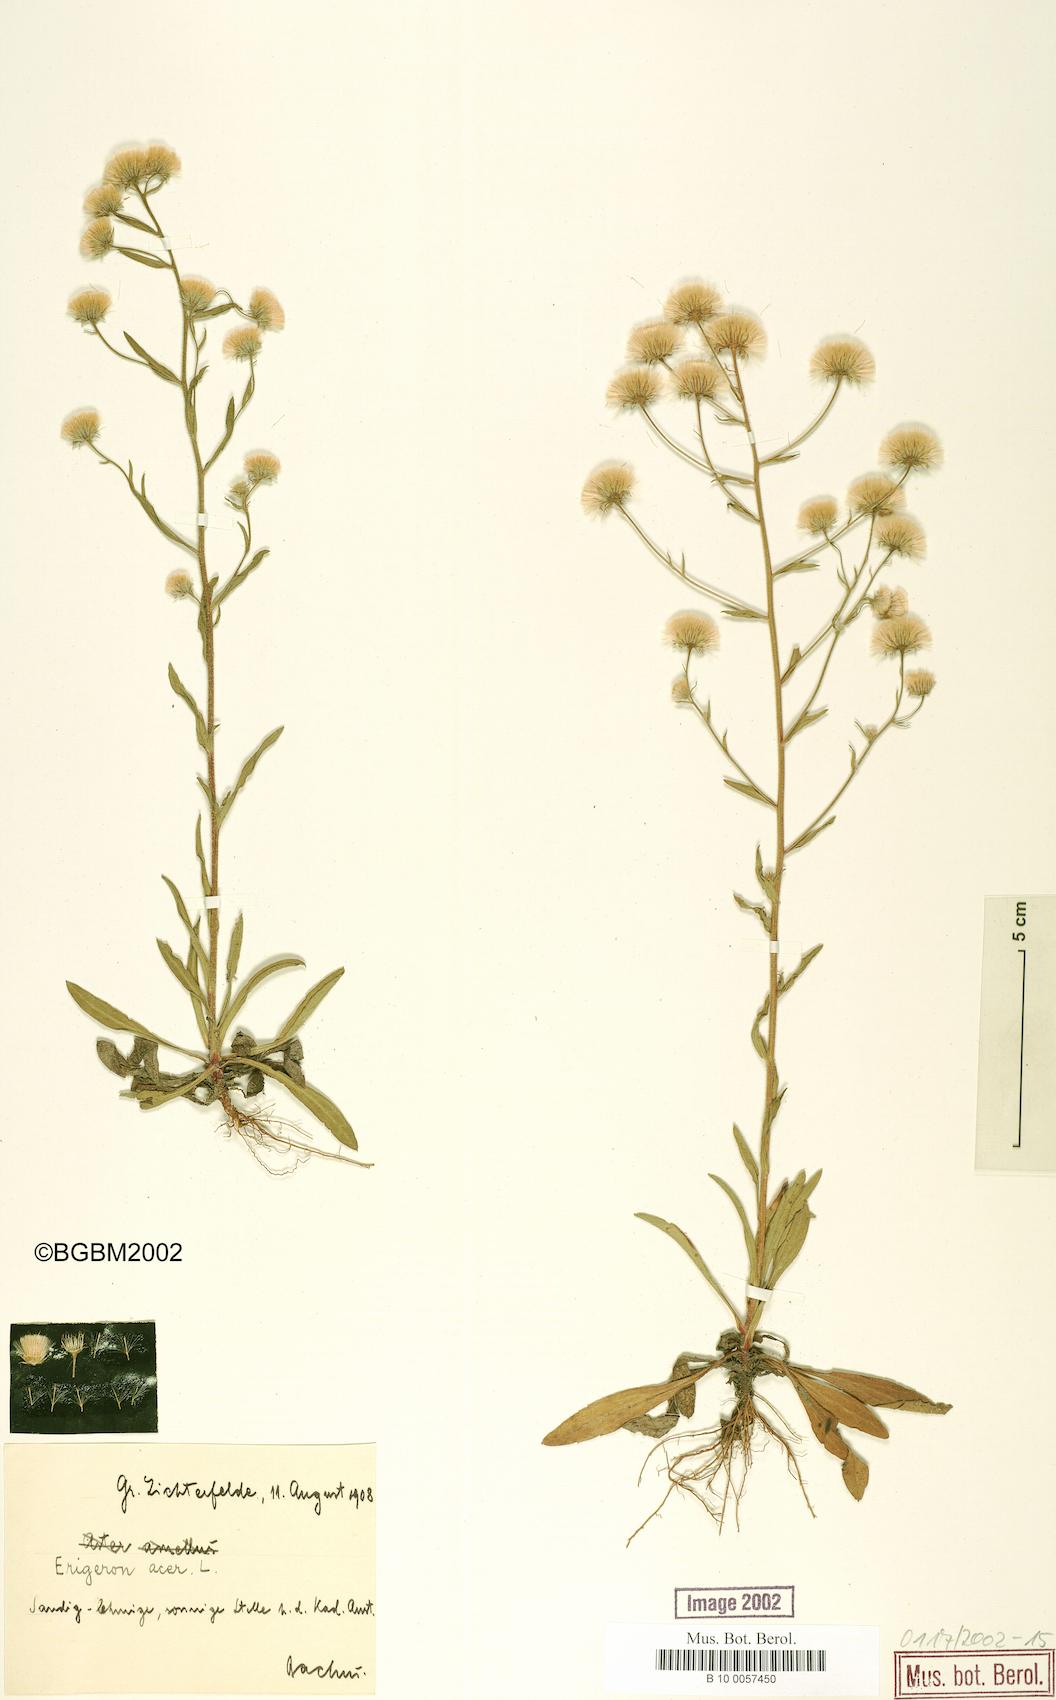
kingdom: Plantae
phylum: Tracheophyta
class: Magnoliopsida
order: Asterales
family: Asteraceae
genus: Erigeron
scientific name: Erigeron acris
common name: Blue fleabane
